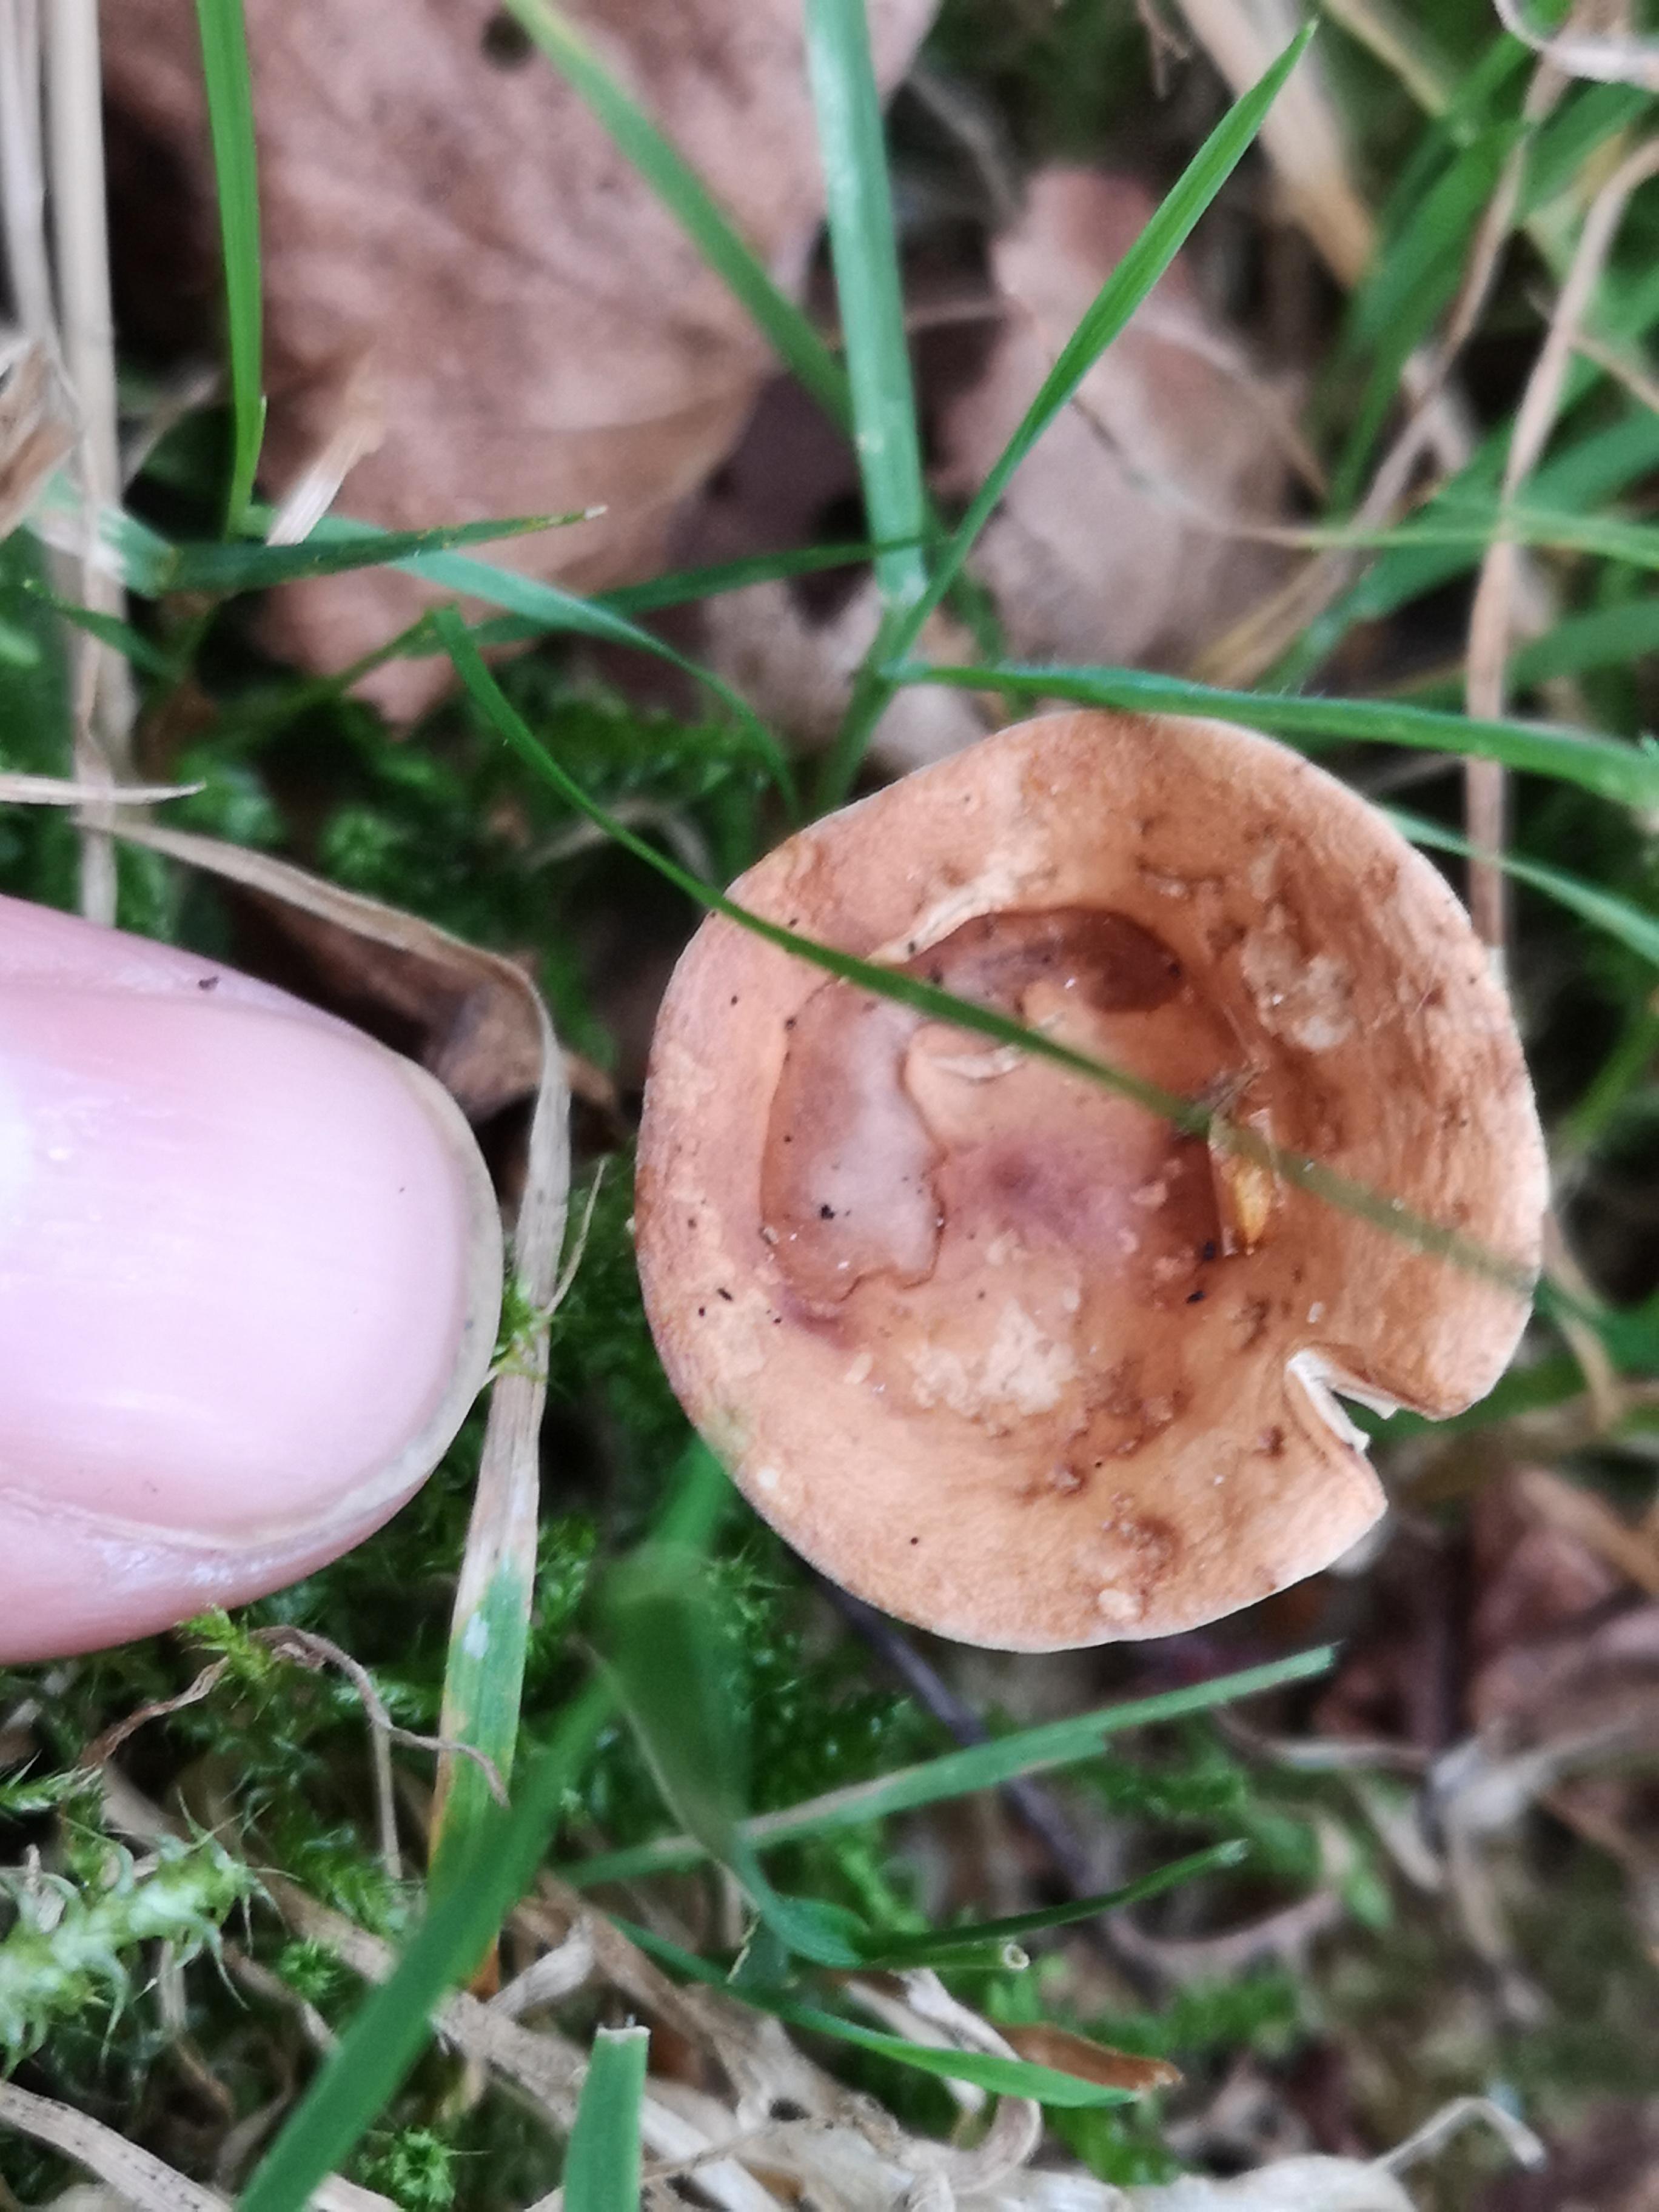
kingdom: Fungi
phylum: Basidiomycota
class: Agaricomycetes
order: Russulales
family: Russulaceae
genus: Lactarius
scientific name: Lactarius tabidus
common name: rynket mælkehat
